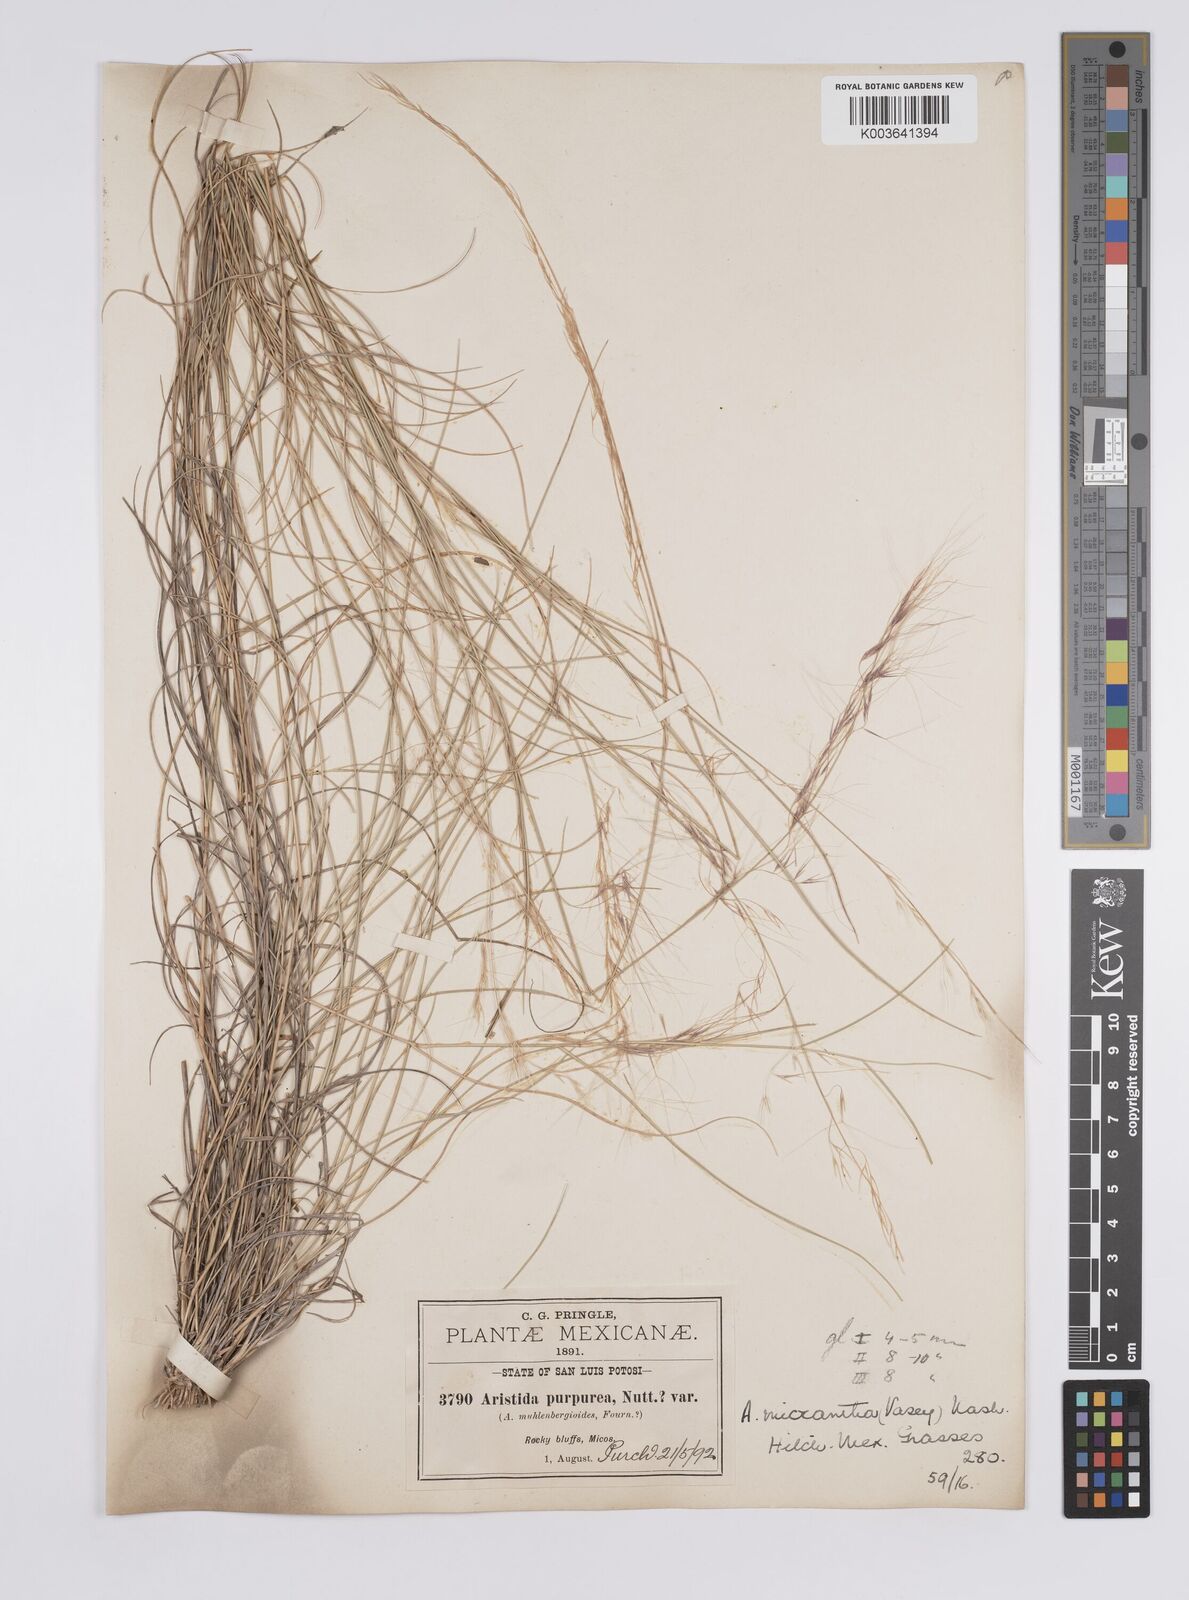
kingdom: Plantae
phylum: Tracheophyta
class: Liliopsida
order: Poales
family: Poaceae
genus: Aristida
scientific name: Aristida purpurea
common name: Purple threeawn
